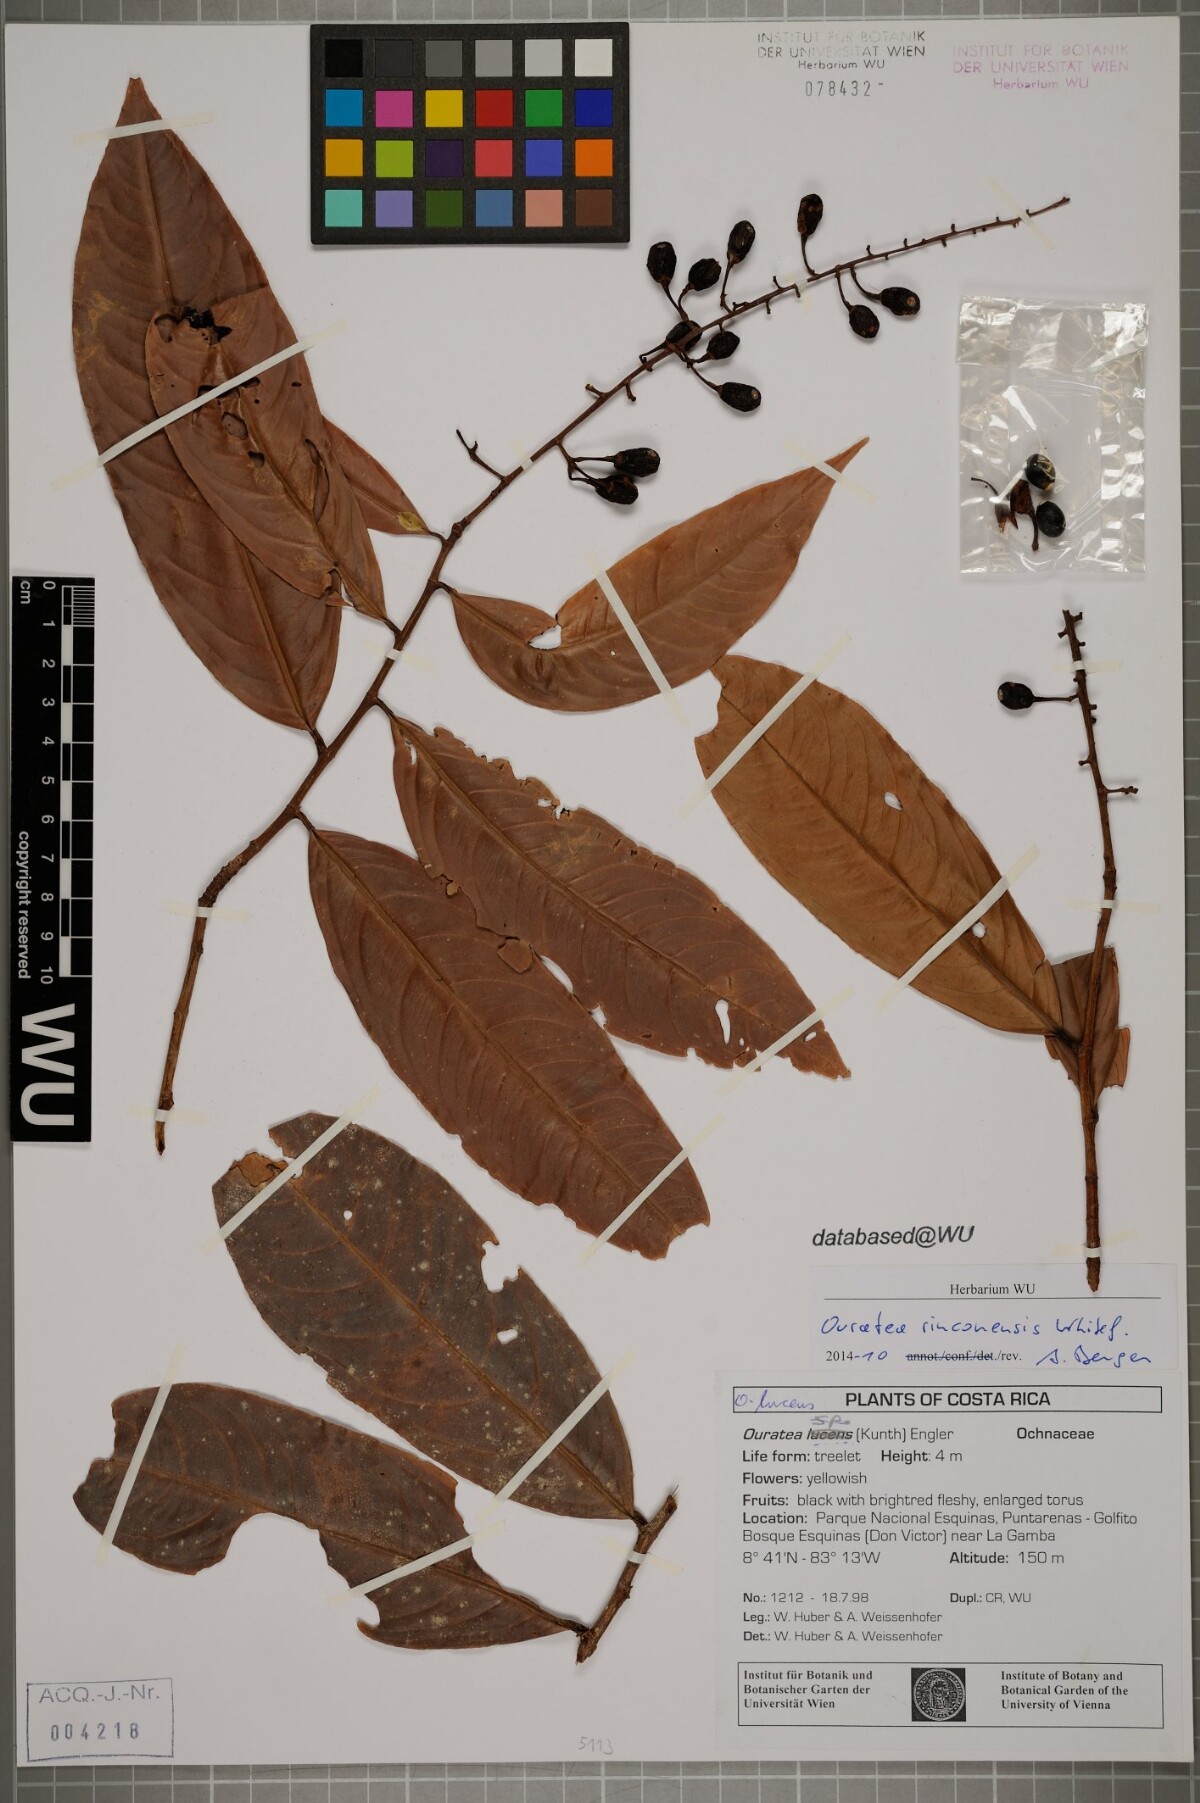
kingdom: Plantae
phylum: Tracheophyta
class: Magnoliopsida
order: Malpighiales
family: Ochnaceae
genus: Ouratea
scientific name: Ouratea rinconensis
